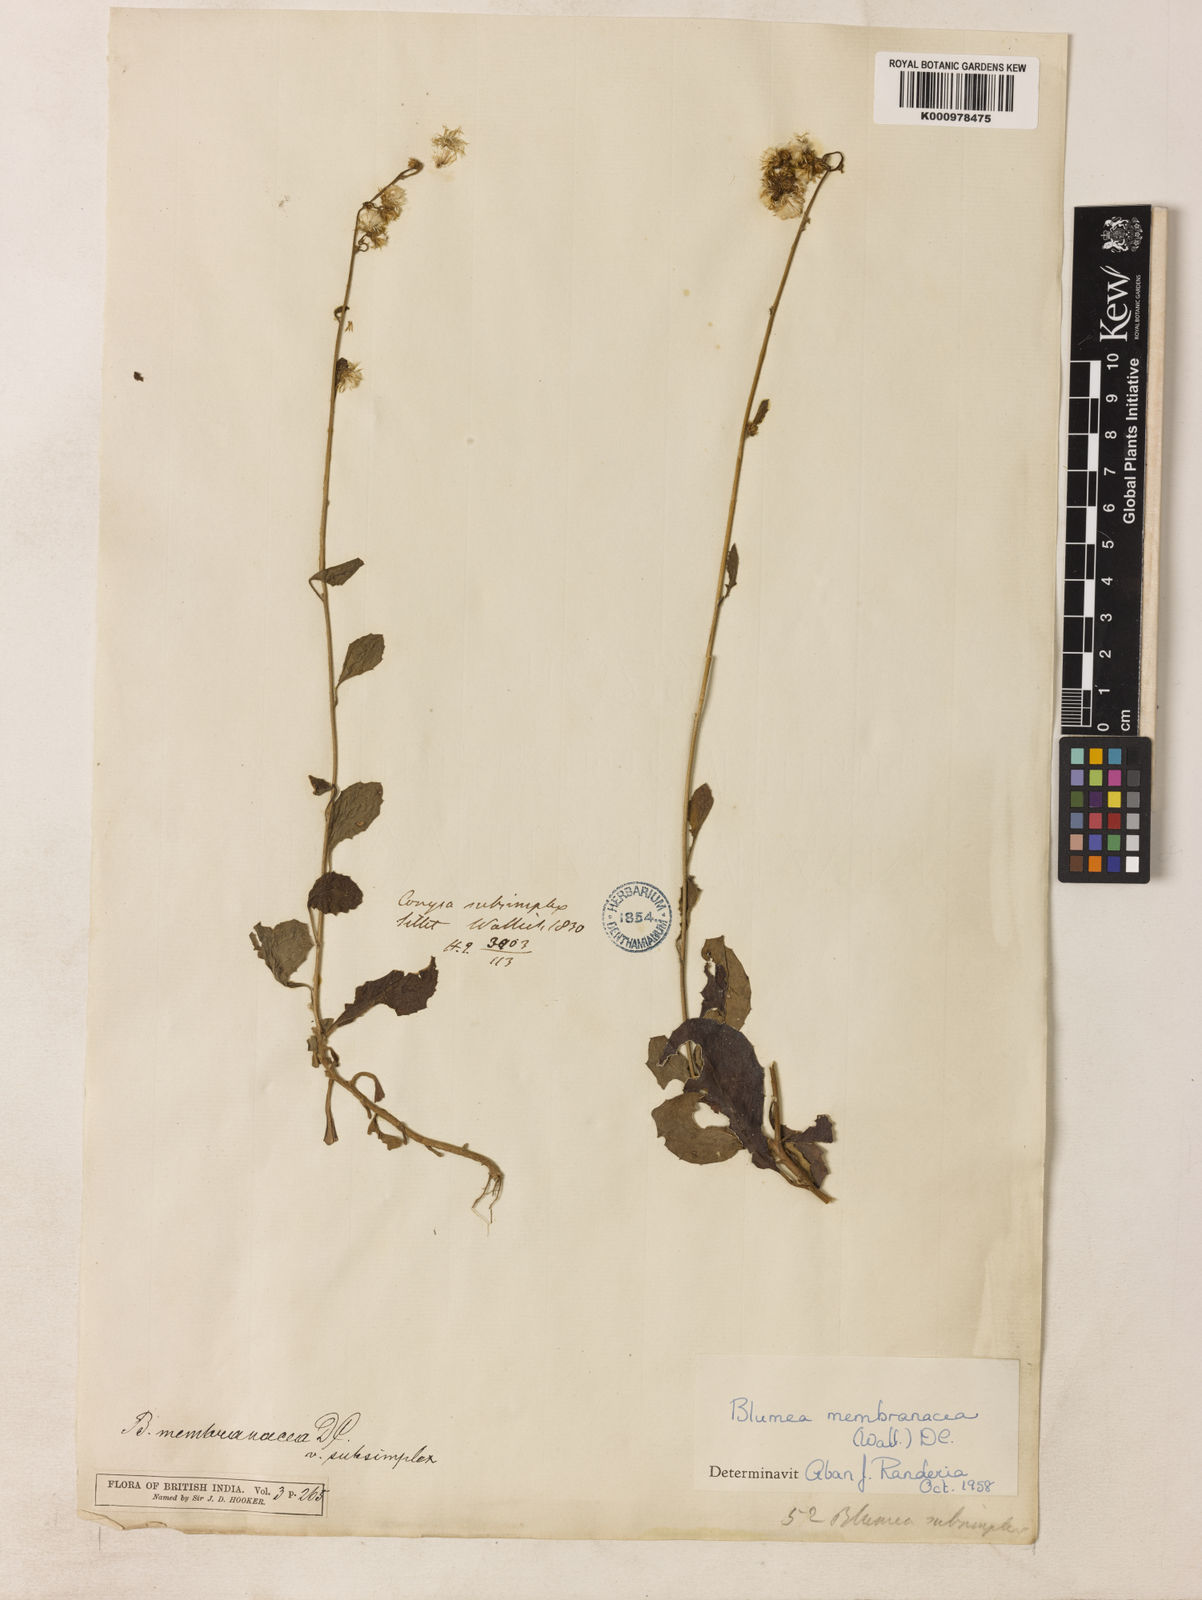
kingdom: Plantae
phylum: Tracheophyta
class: Magnoliopsida
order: Asterales
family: Asteraceae
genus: Blumea
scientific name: Blumea
